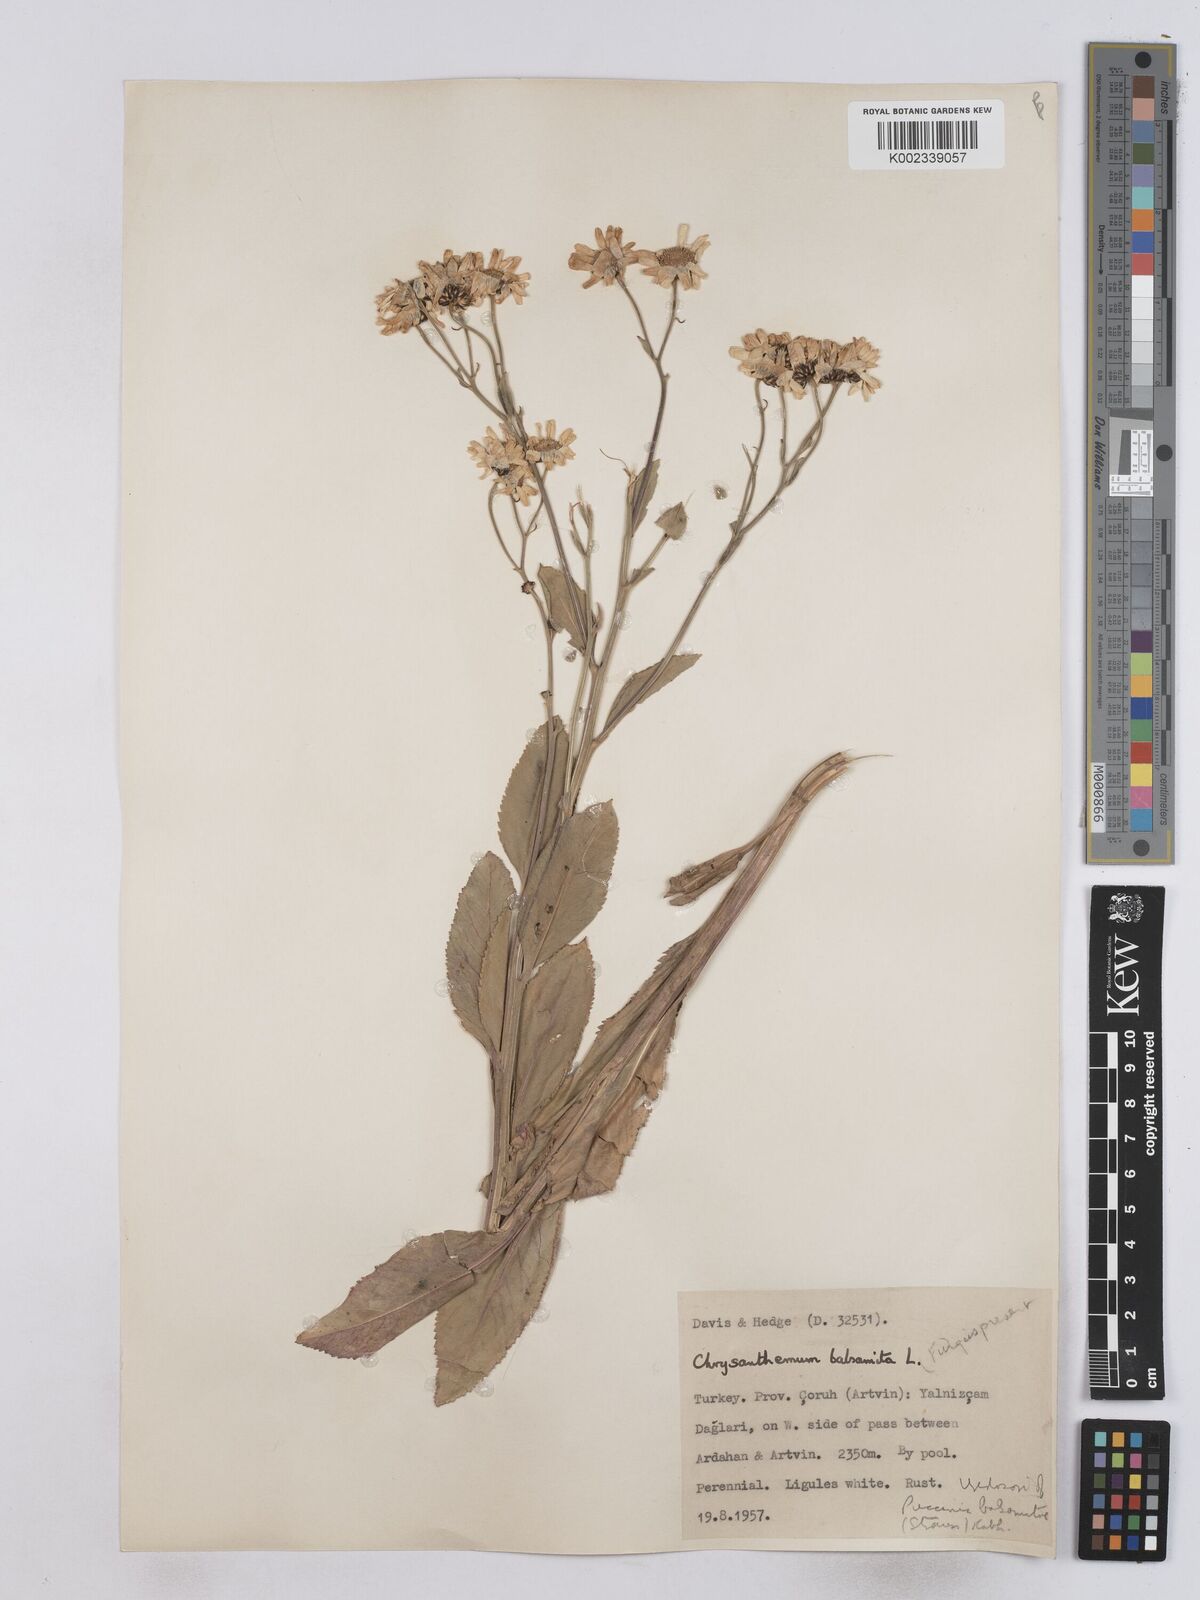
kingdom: Plantae
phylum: Tracheophyta
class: Magnoliopsida
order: Asterales
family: Asteraceae
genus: Tanacetum
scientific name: Tanacetum balsamita
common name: Costmary
